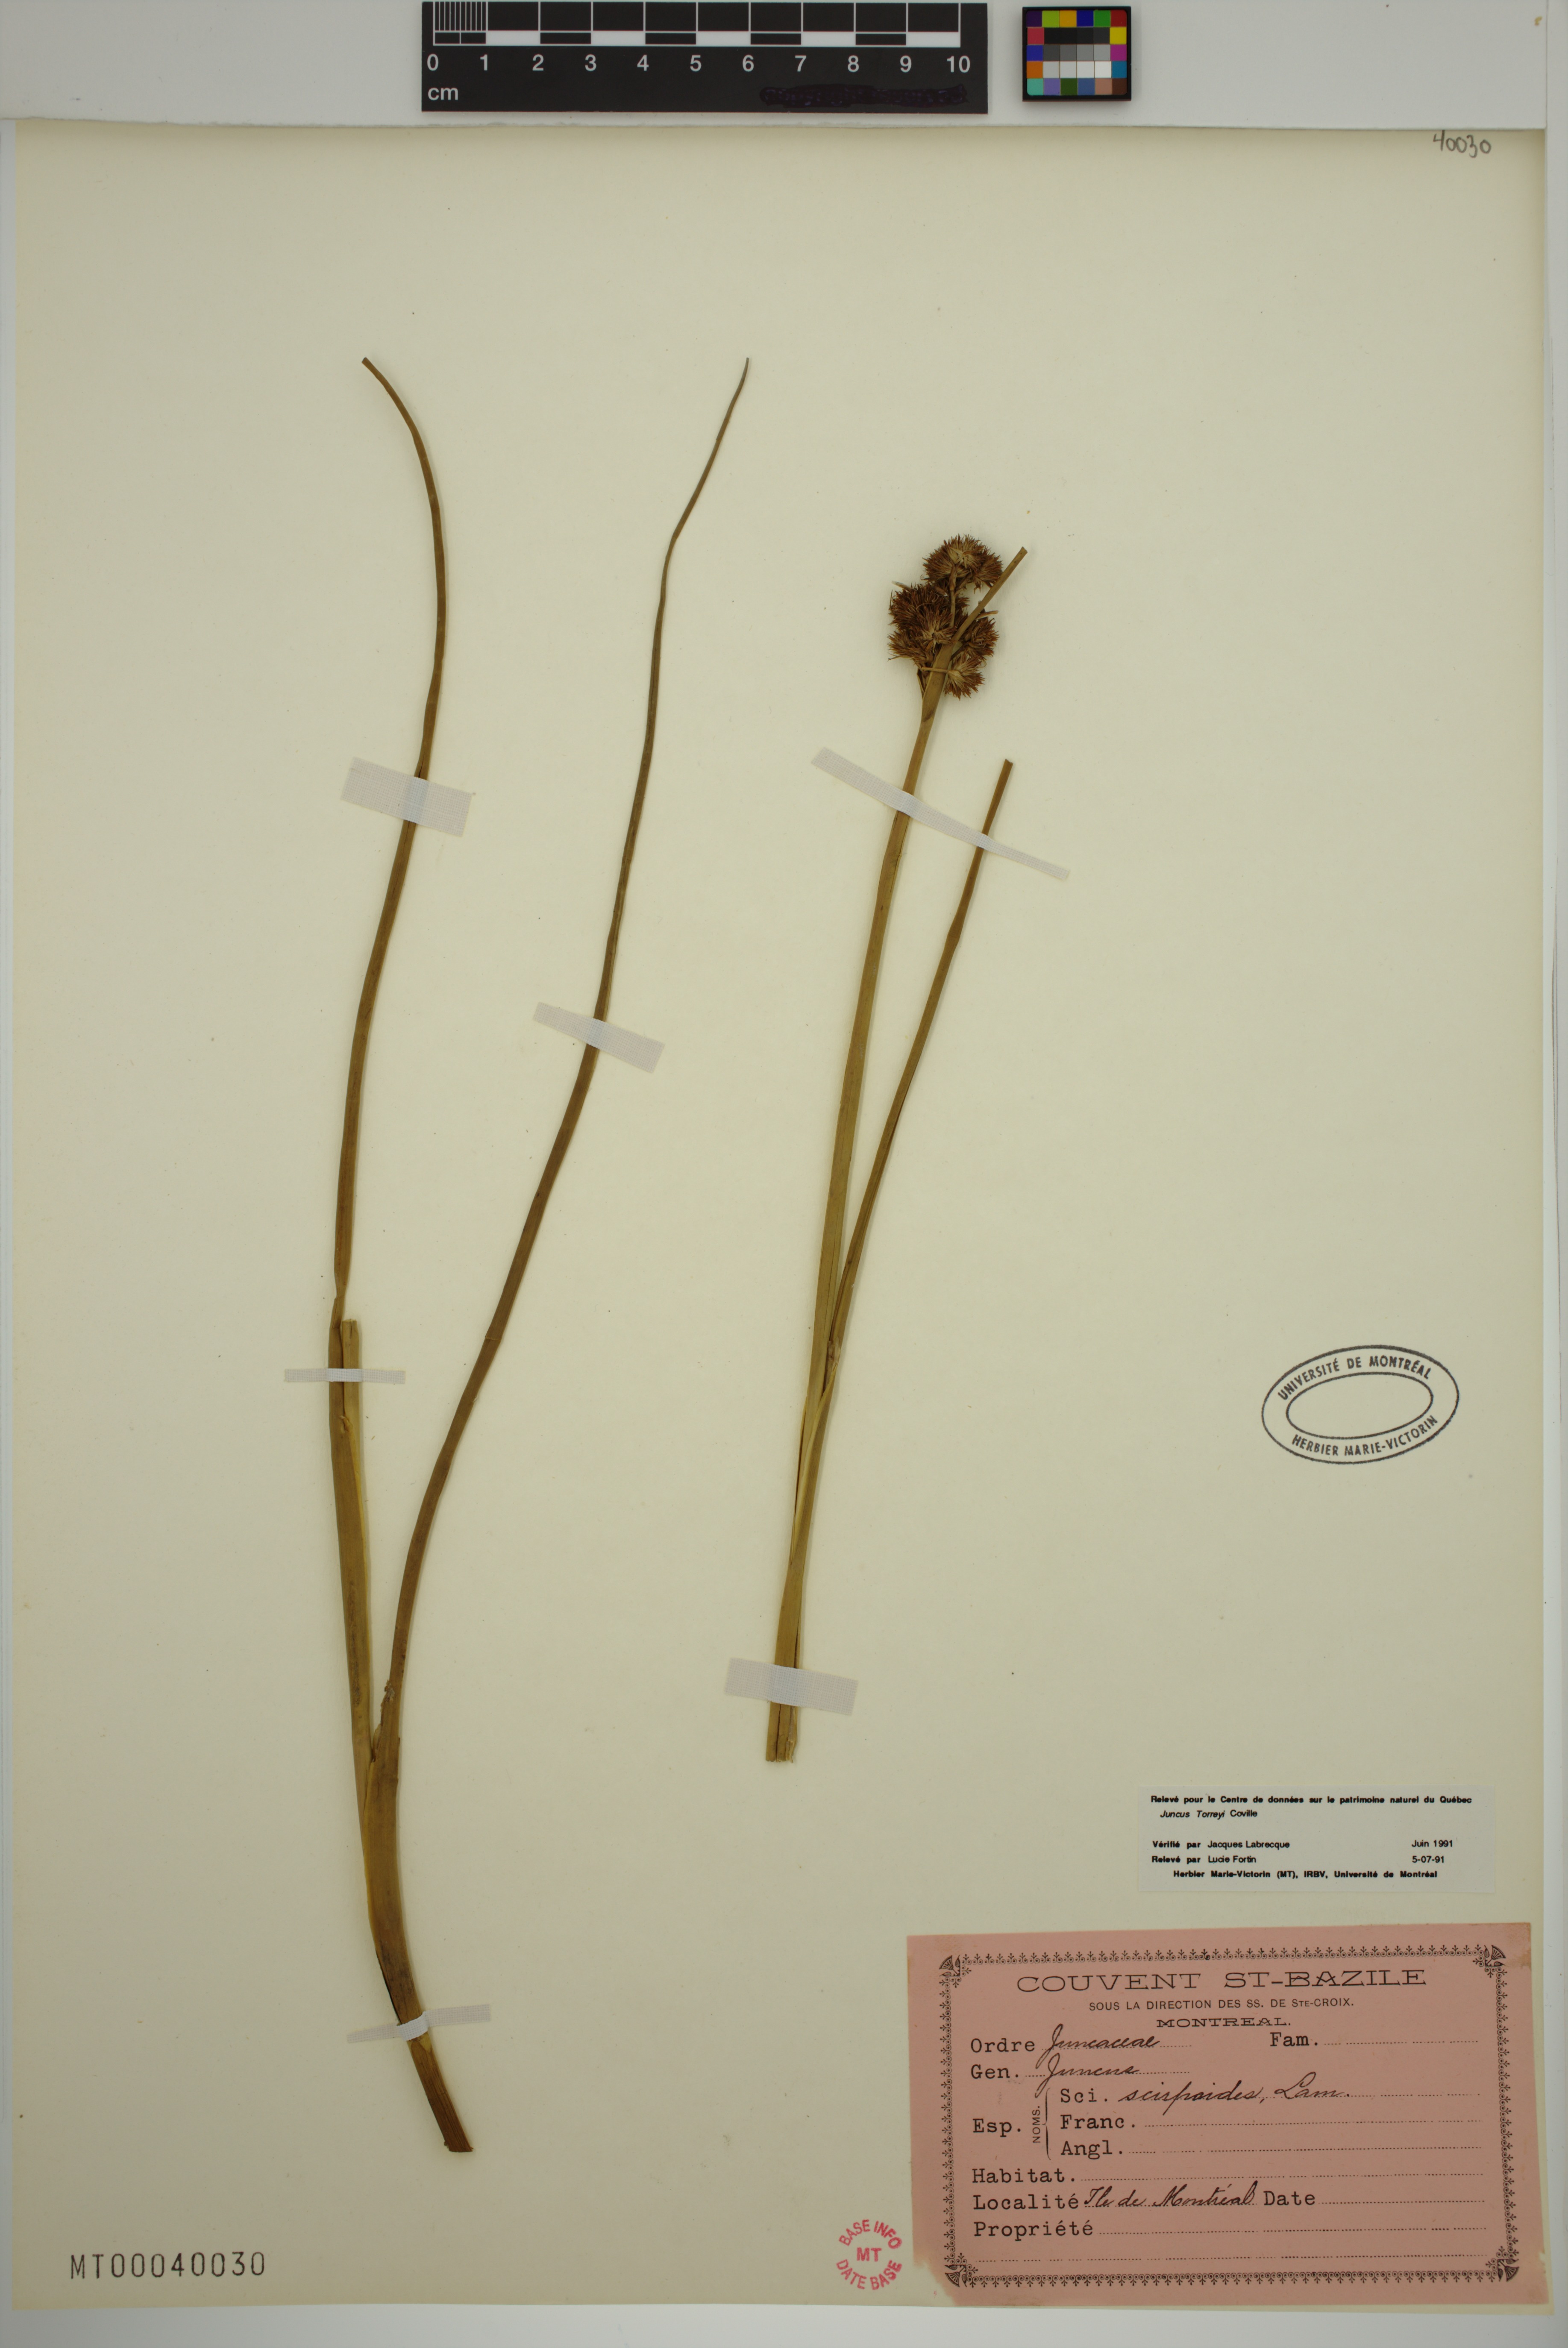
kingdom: Plantae
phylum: Tracheophyta
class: Liliopsida
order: Poales
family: Juncaceae
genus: Juncus
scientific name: Juncus torreyi
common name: Torrey's rush
